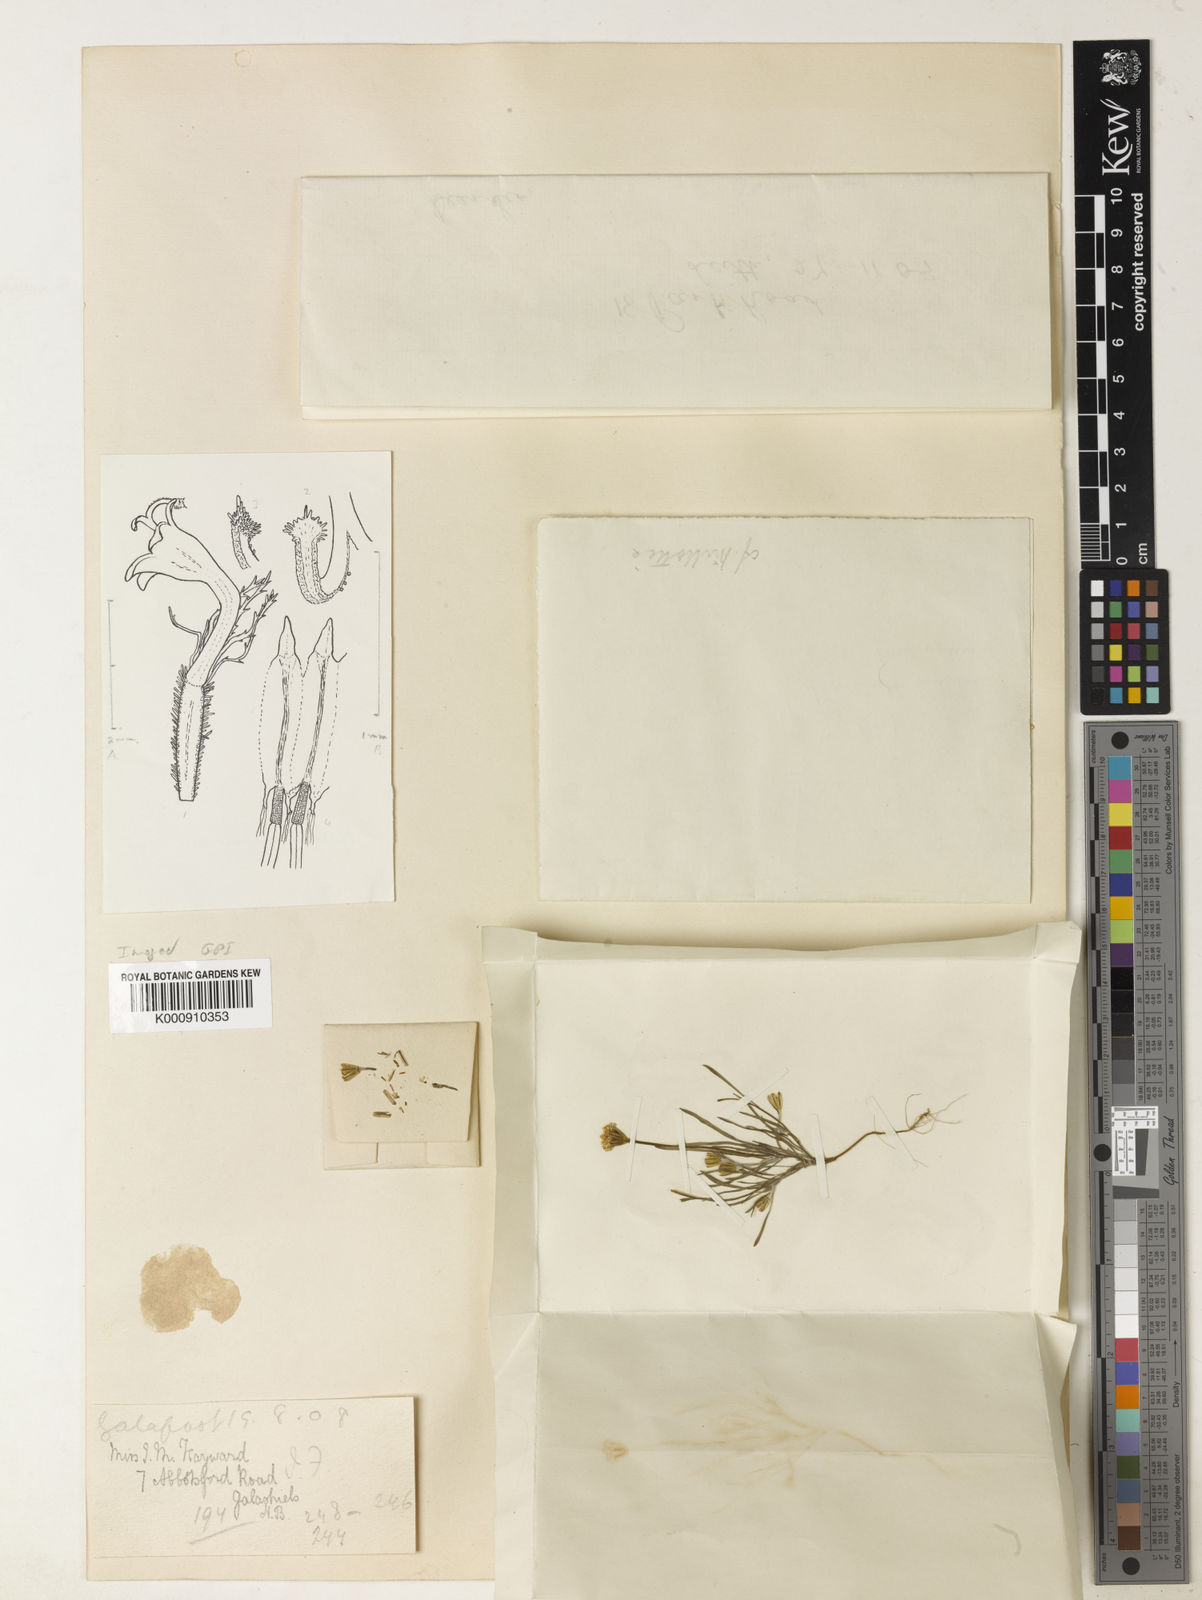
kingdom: Plantae
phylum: Tracheophyta
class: Magnoliopsida
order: Asterales
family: Asteraceae
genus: Millotia
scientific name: Millotia depauperata
